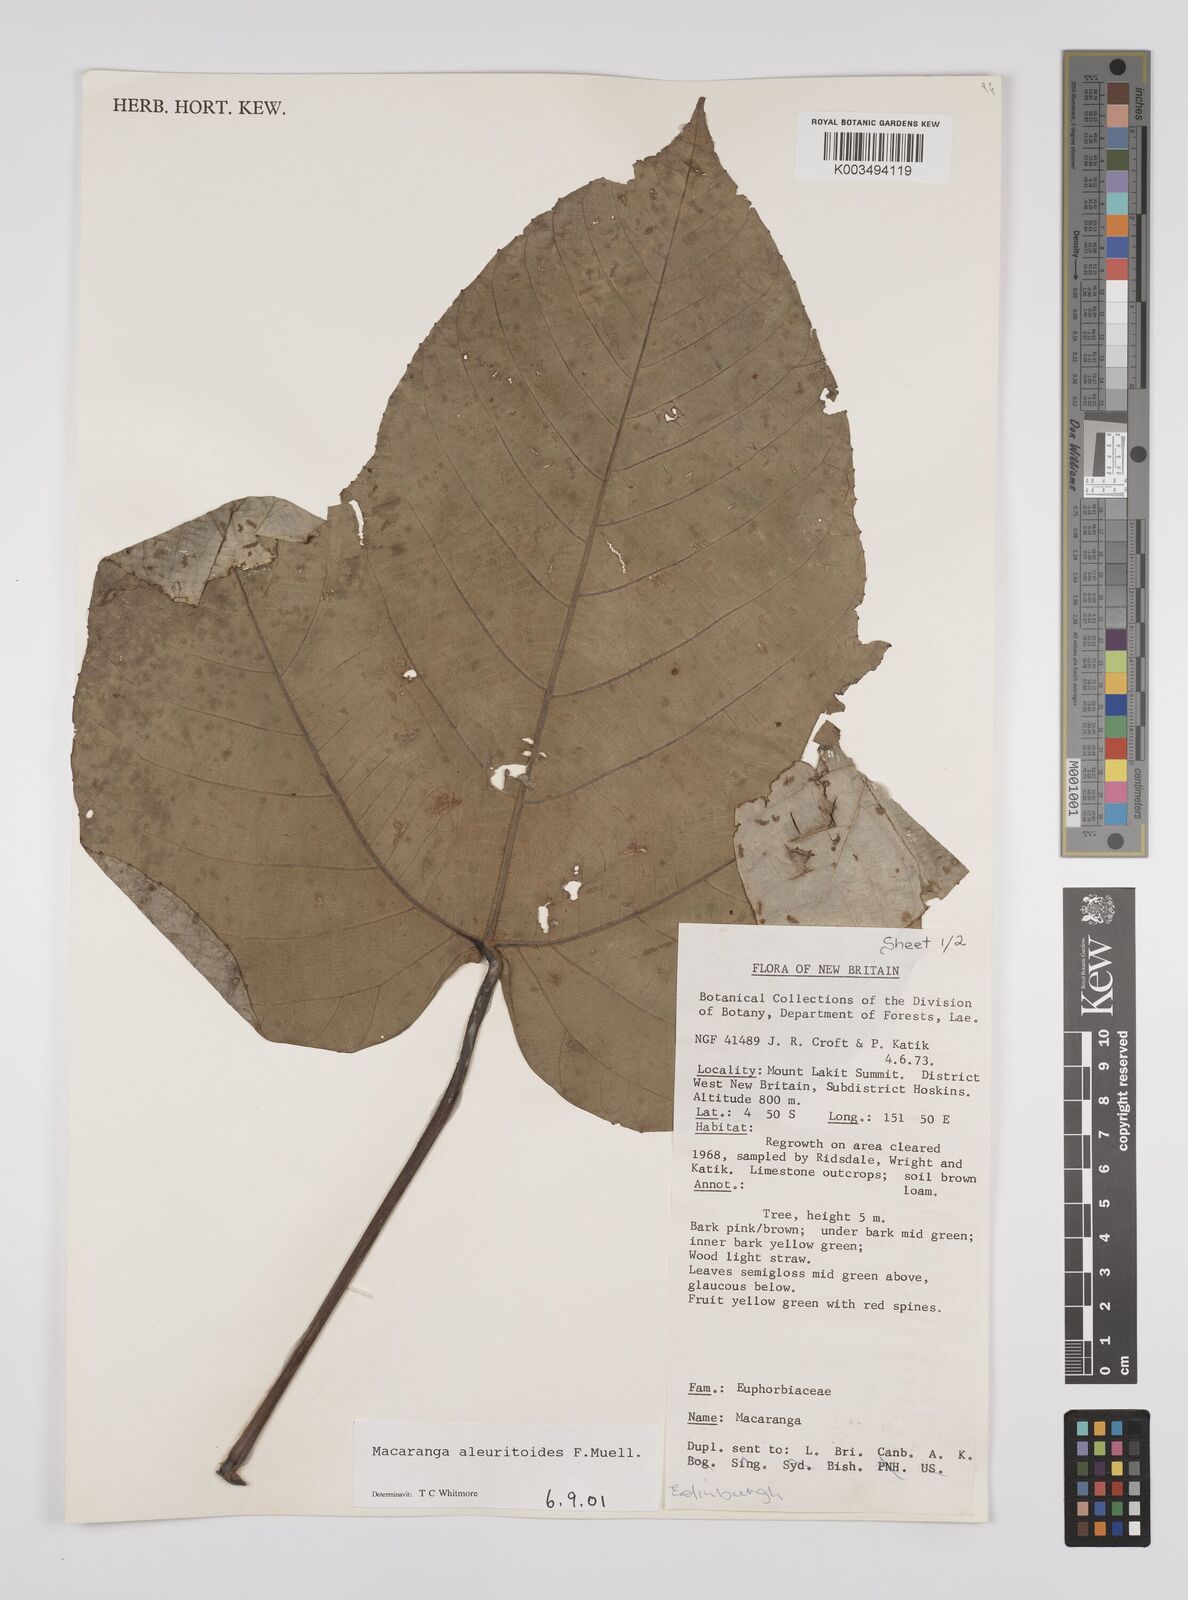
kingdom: Plantae
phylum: Tracheophyta
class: Magnoliopsida
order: Malpighiales
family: Euphorbiaceae
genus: Macaranga
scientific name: Macaranga aleuritoides
